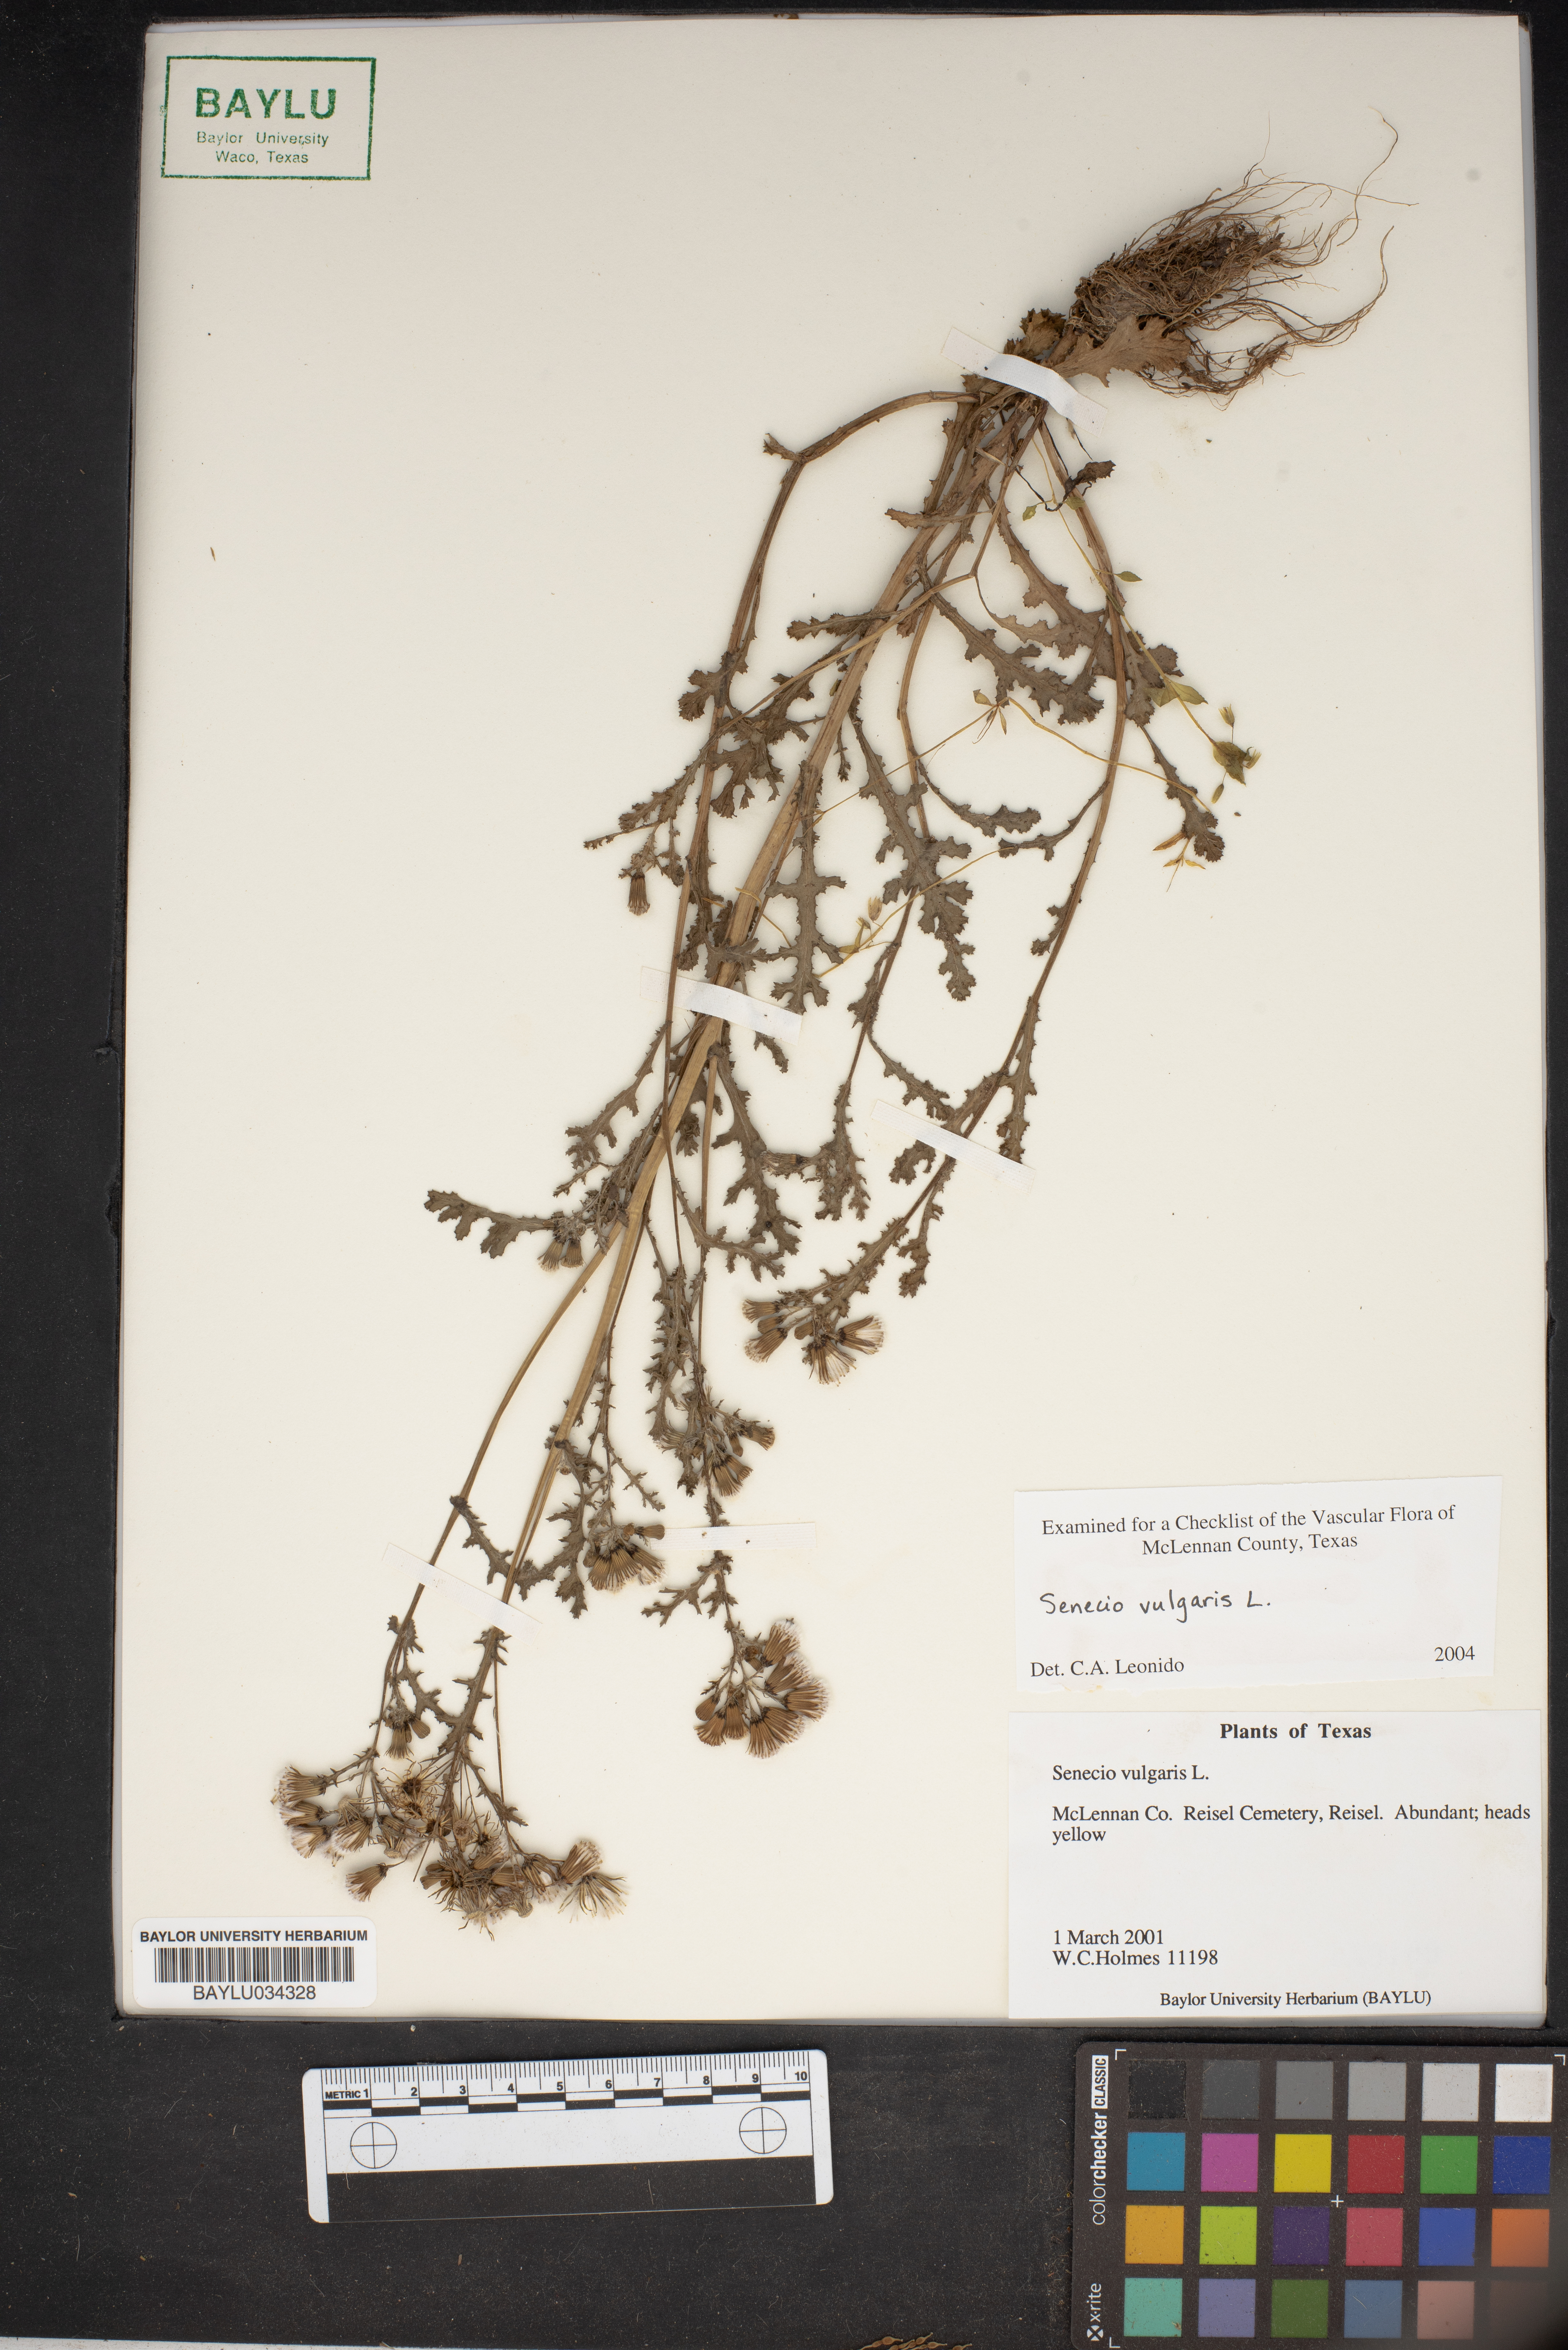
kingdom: Plantae
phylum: Tracheophyta
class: Magnoliopsida
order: Asterales
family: Asteraceae
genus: Senecio
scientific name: Senecio vulgaris
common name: Old-man-in-the-spring
